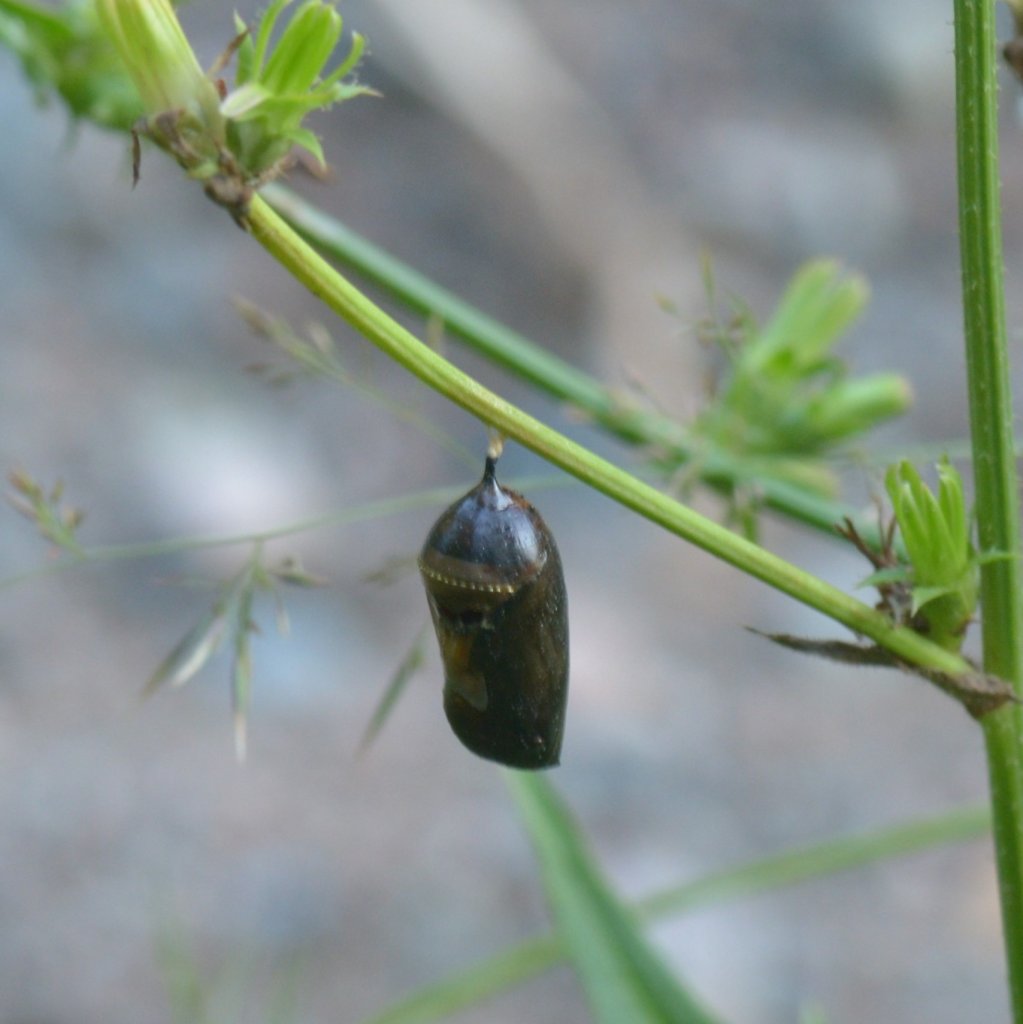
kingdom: Animalia
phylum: Arthropoda
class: Insecta
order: Lepidoptera
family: Nymphalidae
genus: Danaus
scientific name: Danaus plexippus
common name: Monarch
